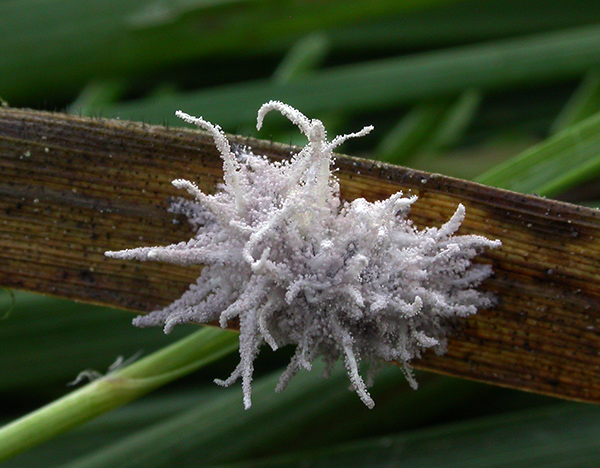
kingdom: Fungi
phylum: Ascomycota
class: Sordariomycetes
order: Hypocreales
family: Cordycipitaceae
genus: Gibellula
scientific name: Gibellula pulchra
